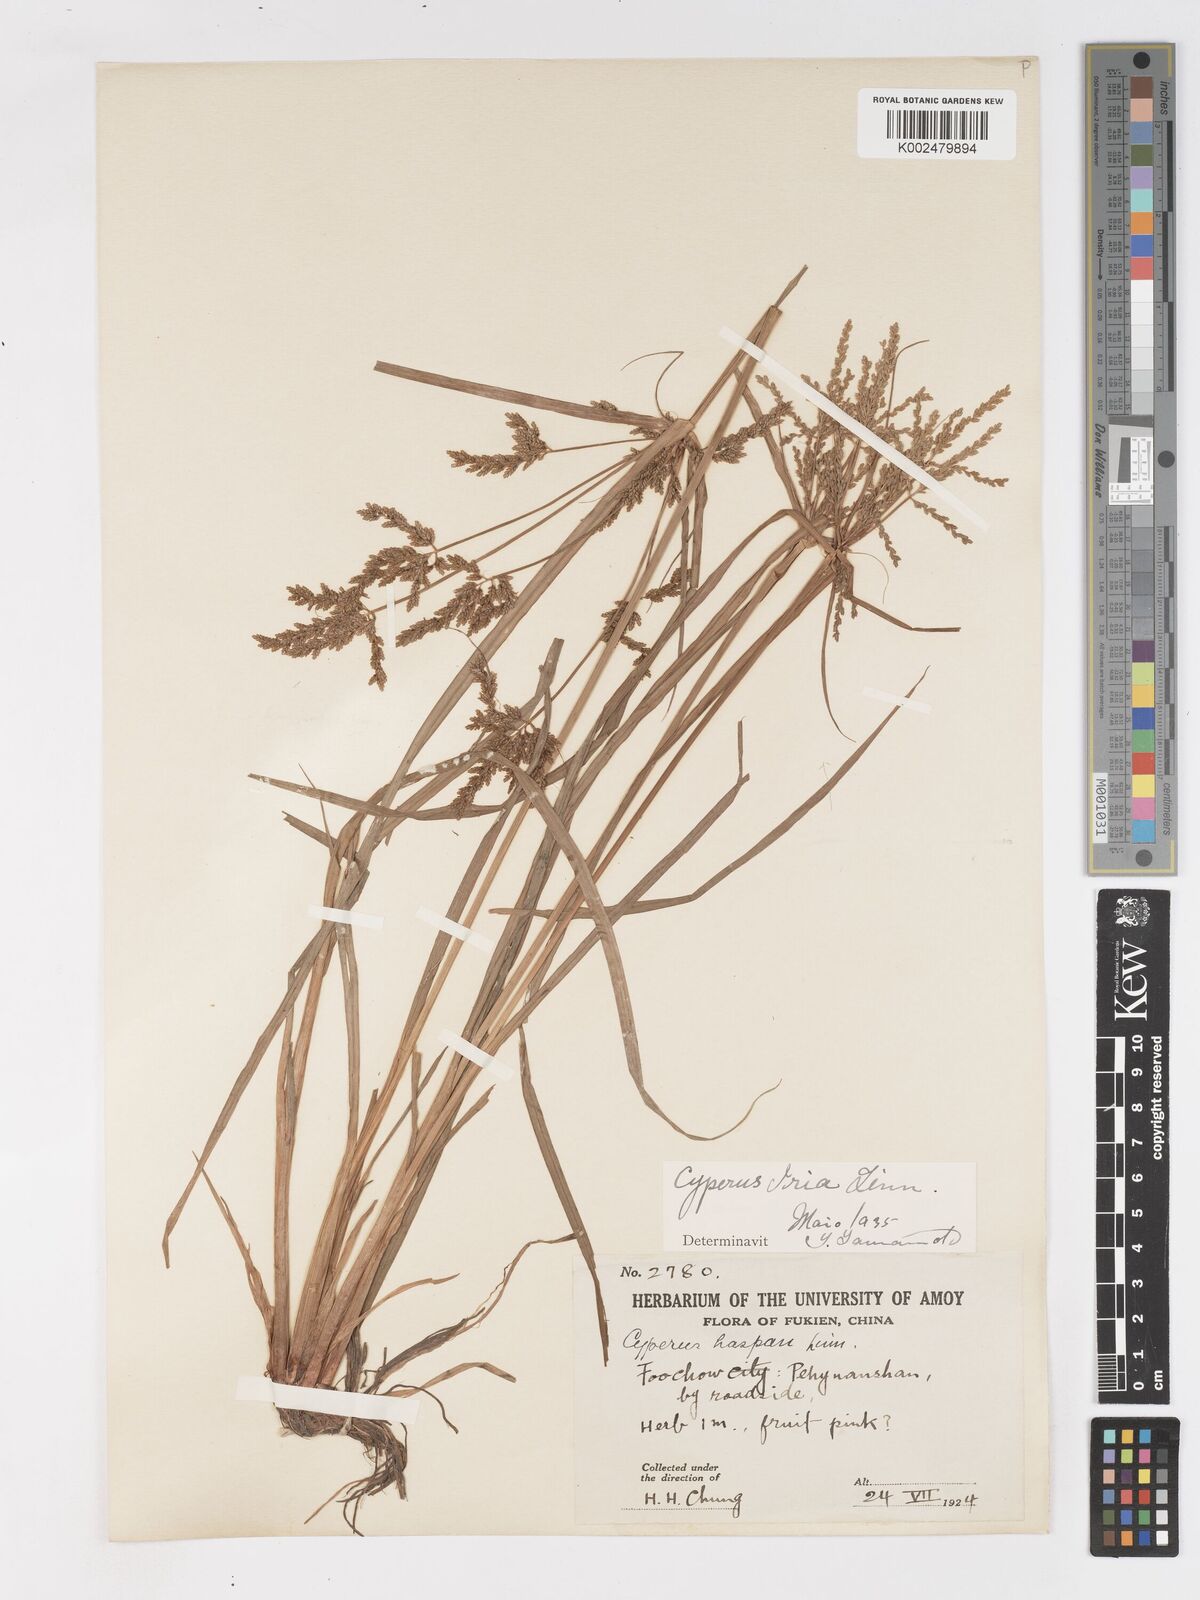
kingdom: Plantae
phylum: Tracheophyta
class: Liliopsida
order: Poales
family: Cyperaceae
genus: Cyperus
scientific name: Cyperus iria
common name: Ricefield flatsedge
